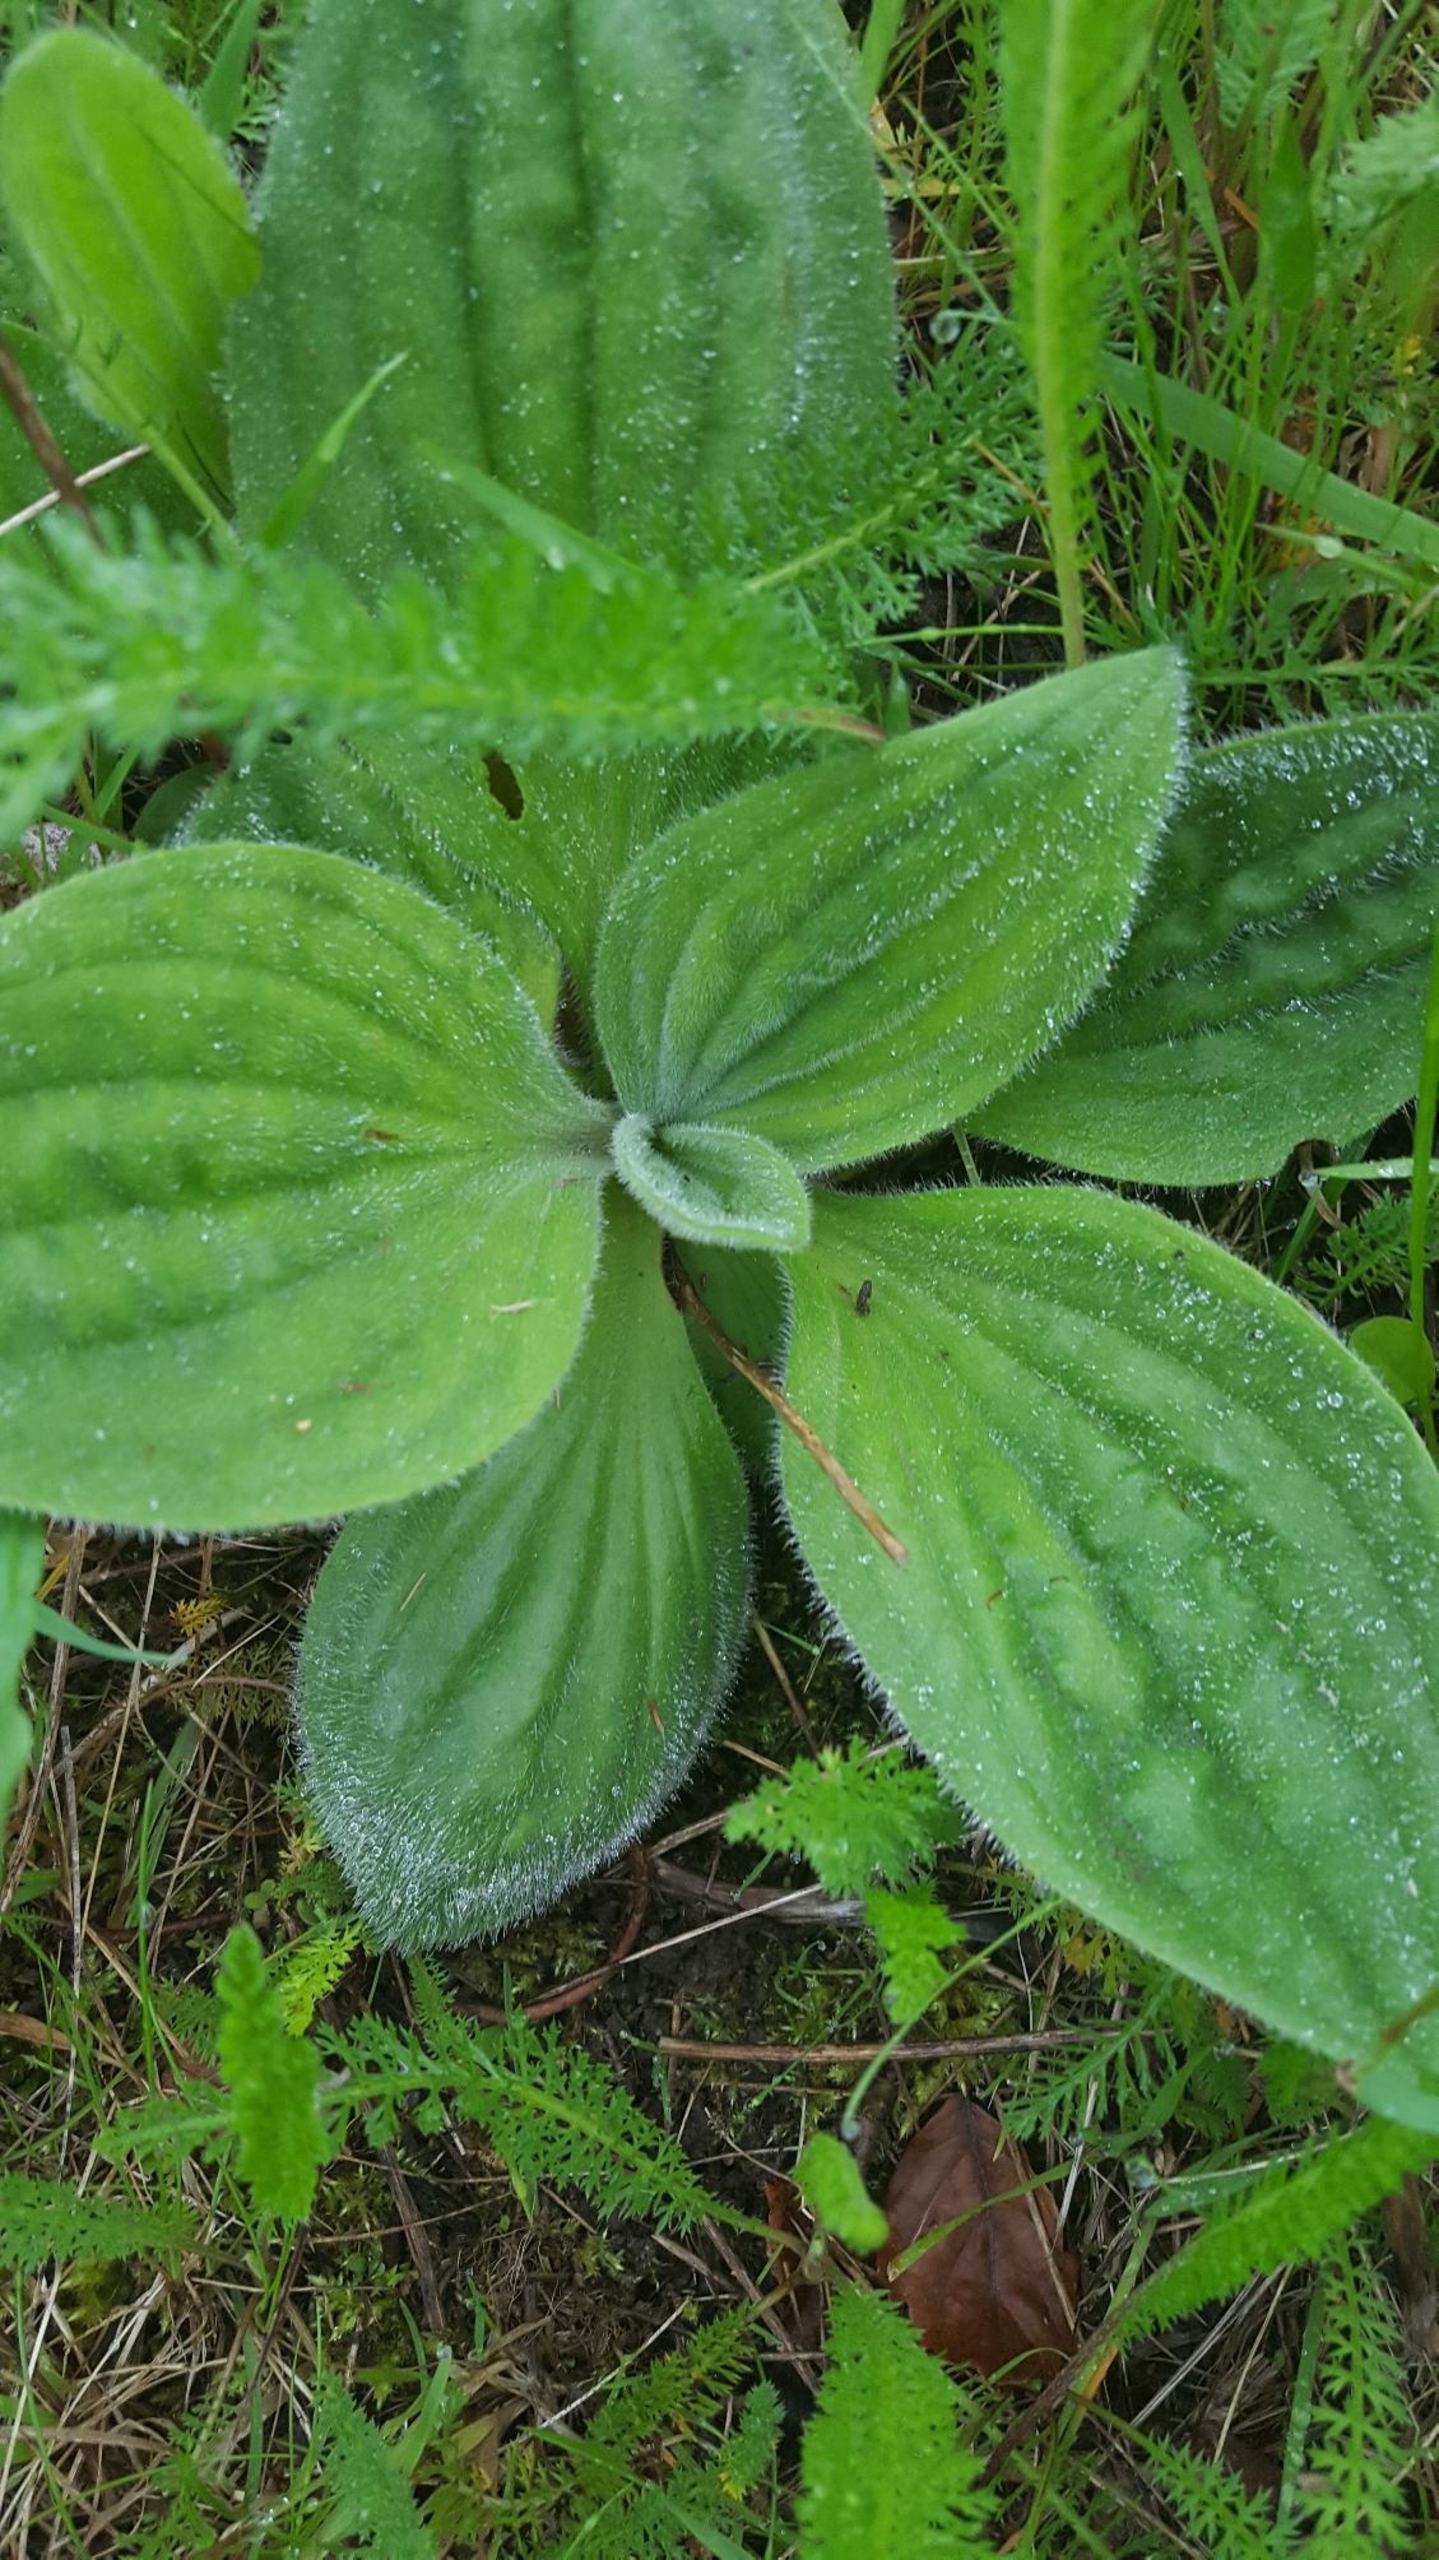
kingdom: Plantae
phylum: Tracheophyta
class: Magnoliopsida
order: Lamiales
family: Plantaginaceae
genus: Plantago
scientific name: Plantago media
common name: Dunet vejbred
